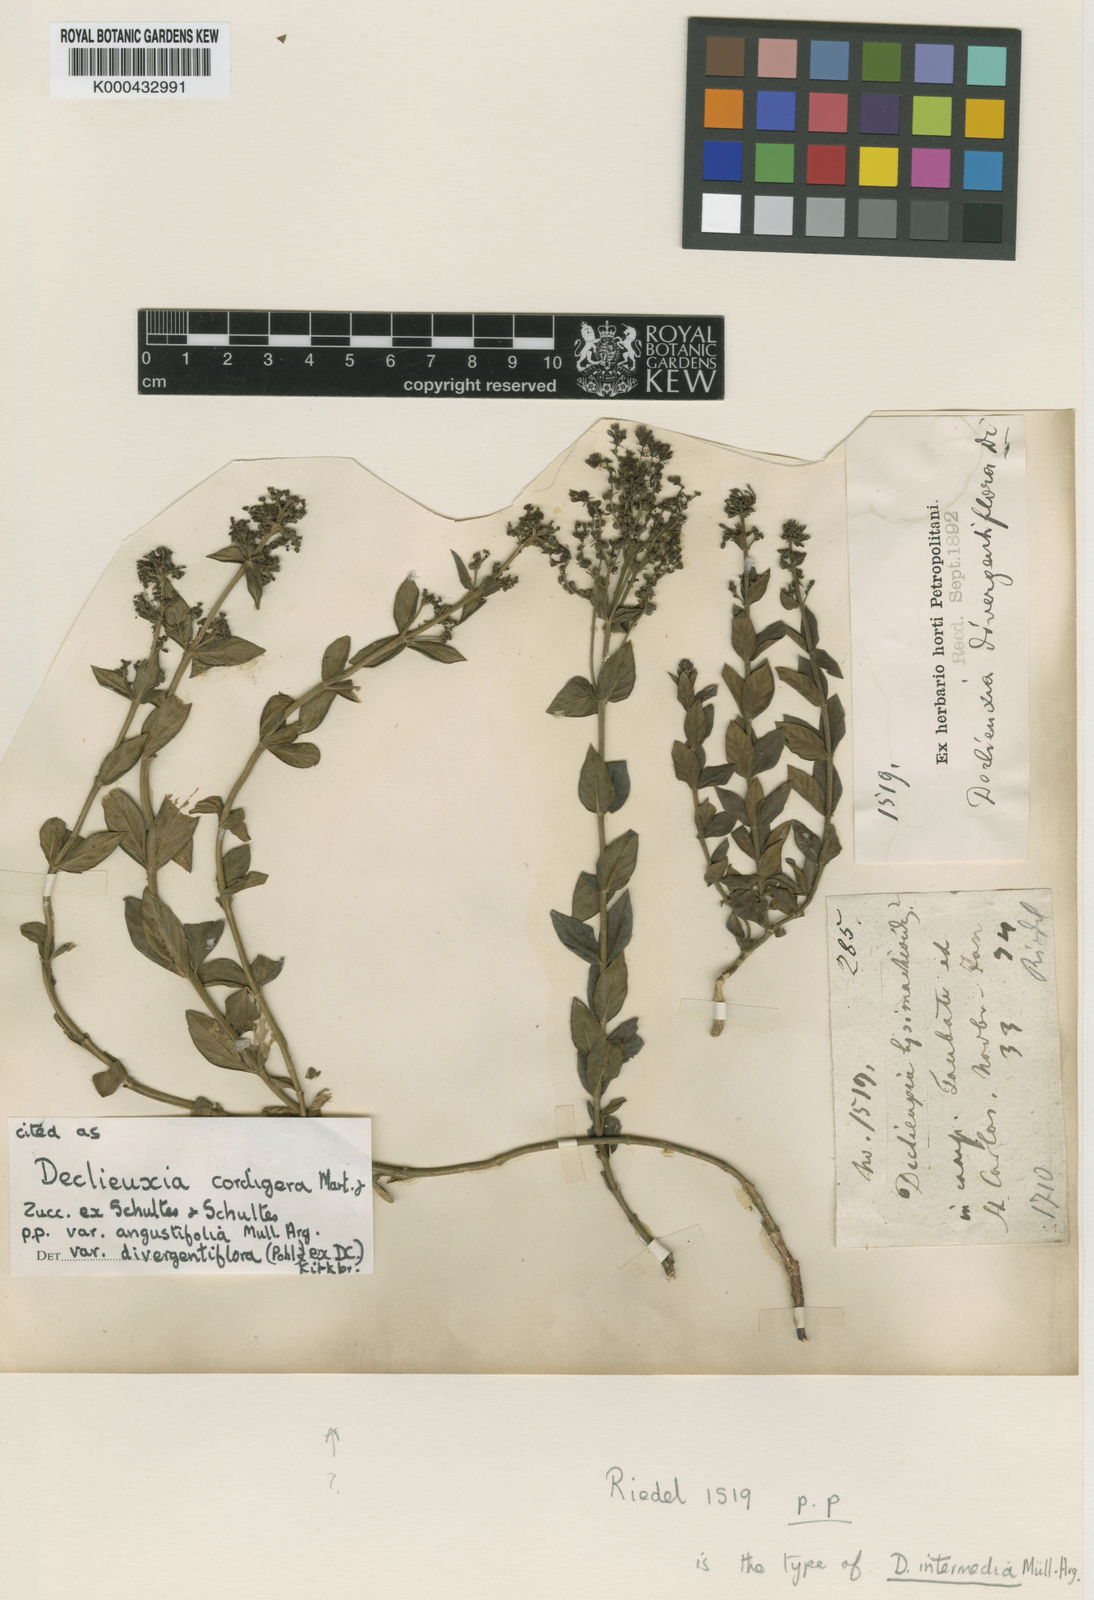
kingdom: Plantae
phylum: Tracheophyta
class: Magnoliopsida
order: Gentianales
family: Rubiaceae
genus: Declieuxia
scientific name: Declieuxia
